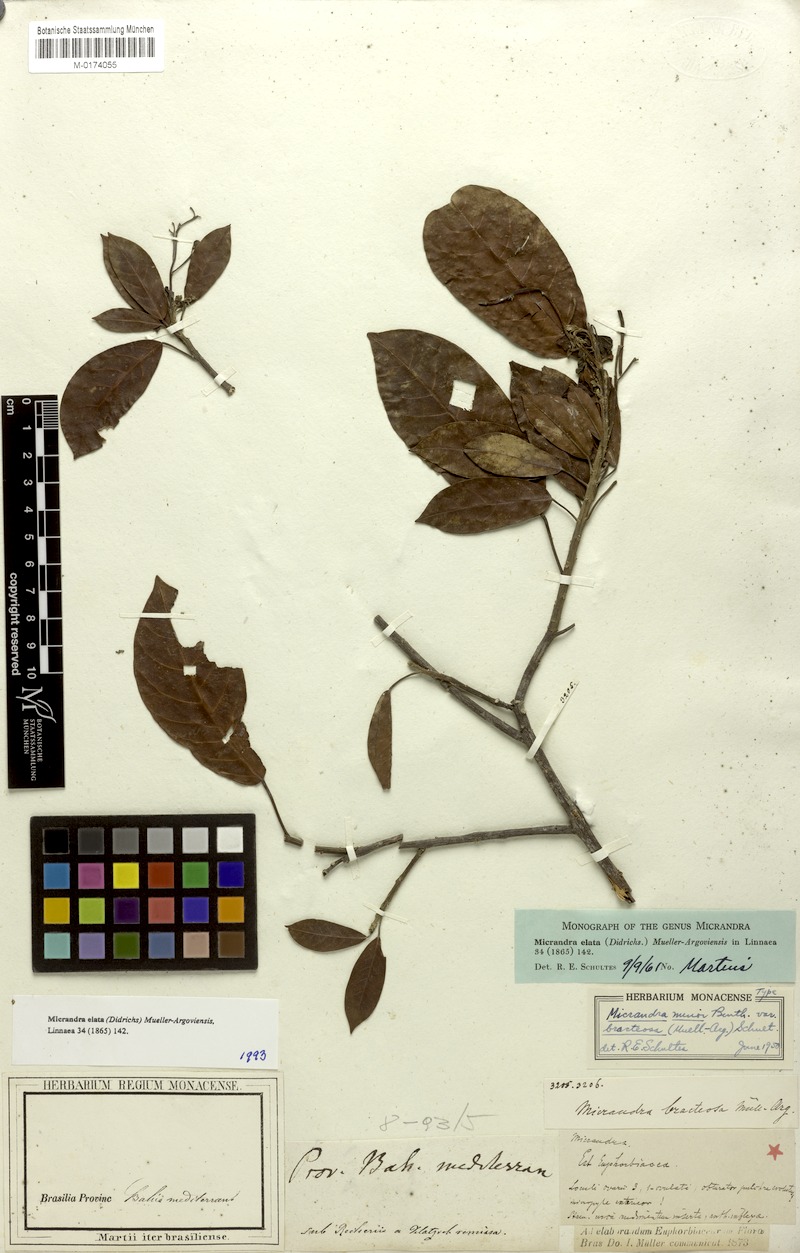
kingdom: Plantae
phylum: Tracheophyta
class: Magnoliopsida
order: Malpighiales
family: Euphorbiaceae
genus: Micrandra
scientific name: Micrandra elata
